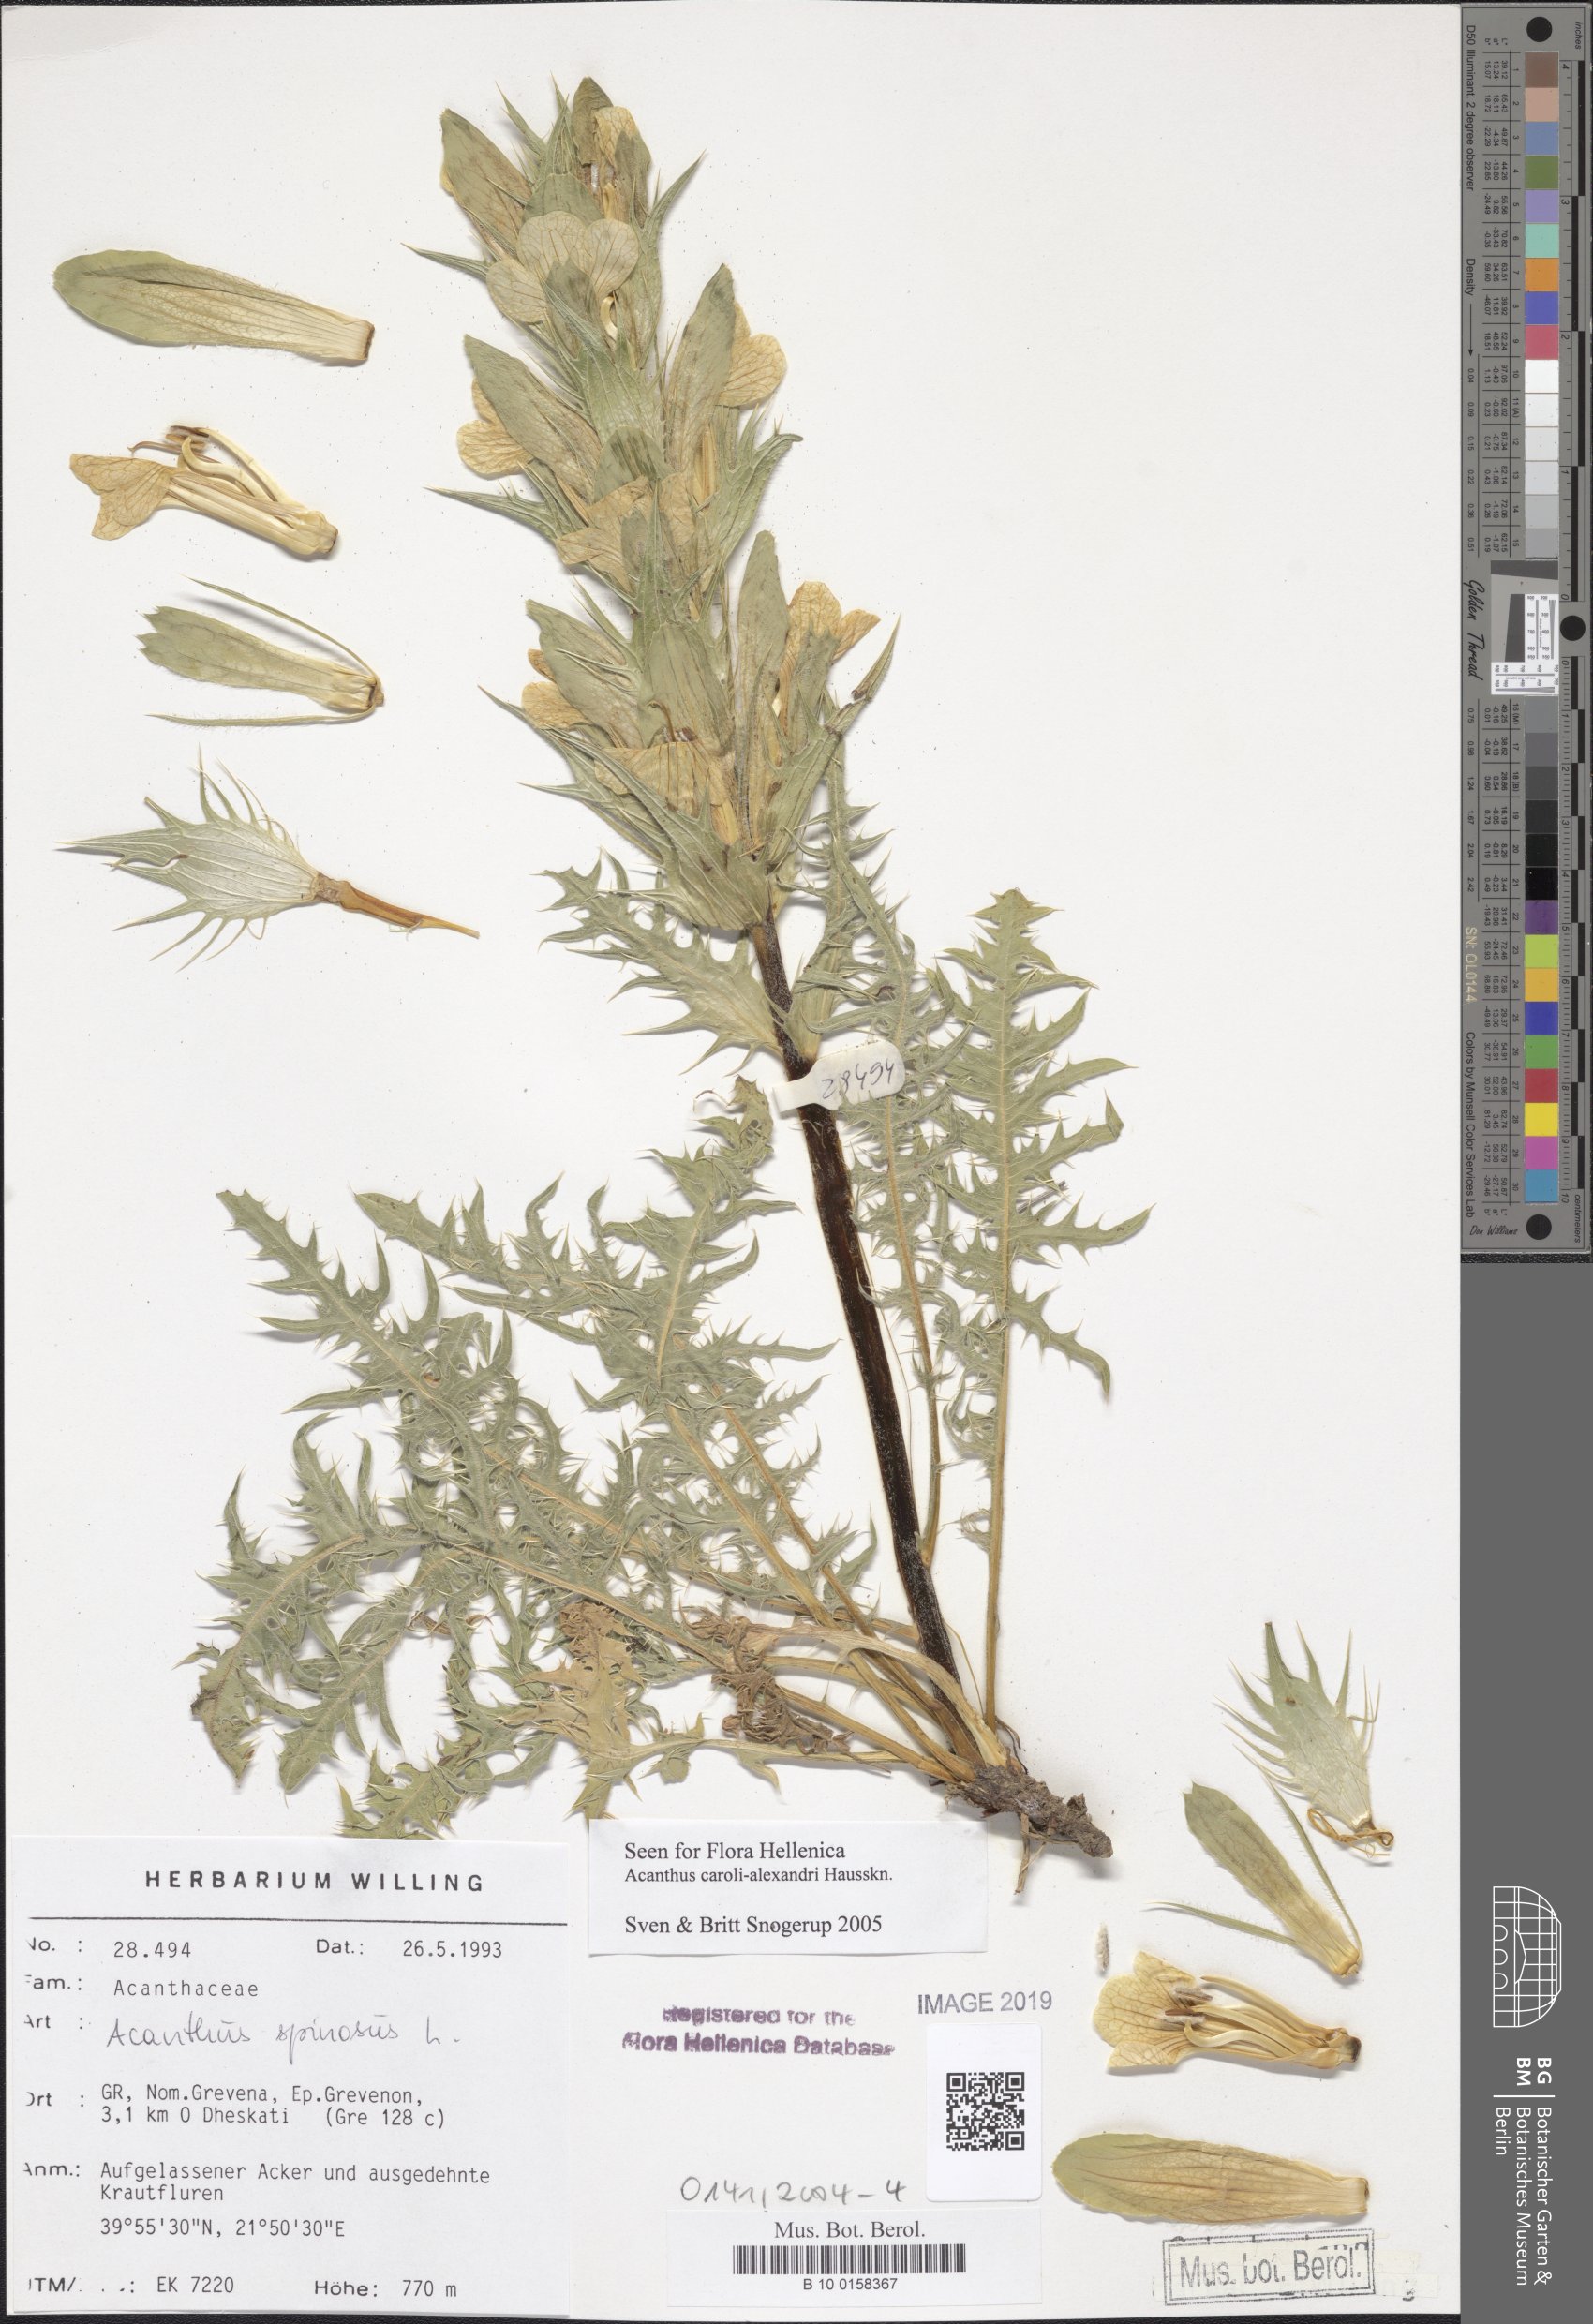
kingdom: Plantae
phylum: Tracheophyta
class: Magnoliopsida
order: Lamiales
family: Acanthaceae
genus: Acanthus
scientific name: Acanthus spinosus
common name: Spiny bear's-breech
